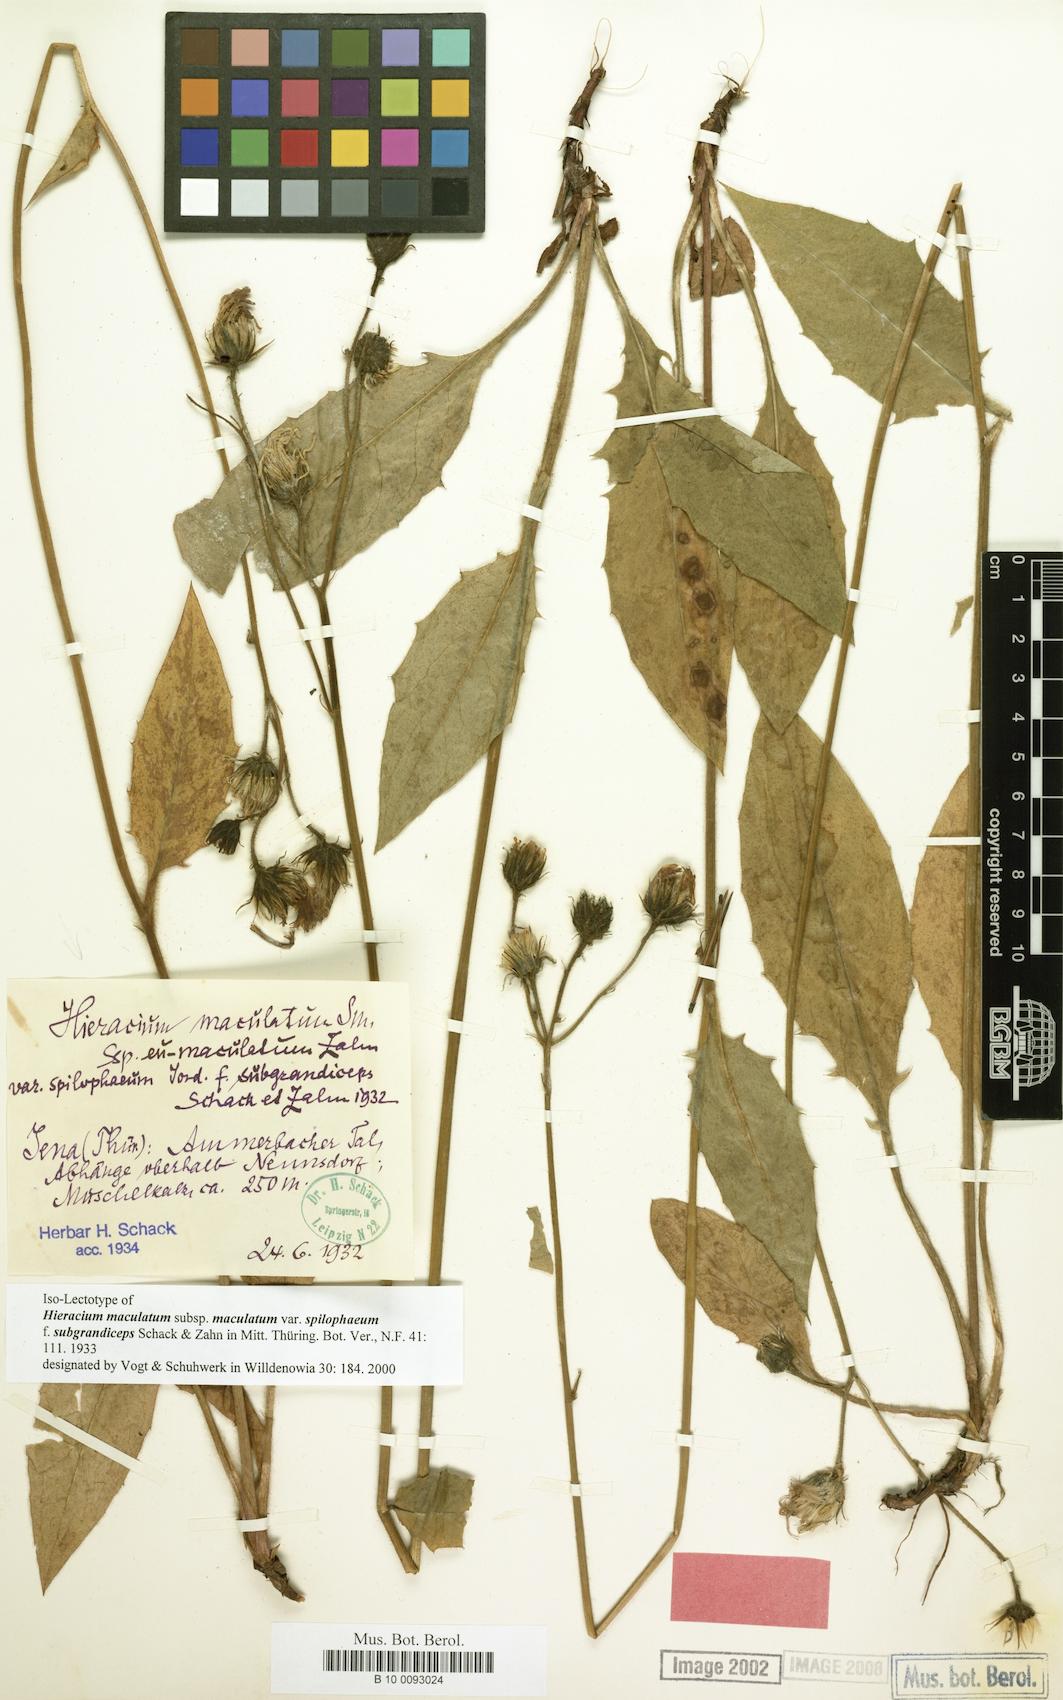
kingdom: Plantae
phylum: Tracheophyta
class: Magnoliopsida
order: Asterales
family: Asteraceae
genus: Hieracium
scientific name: Hieracium maculatum
